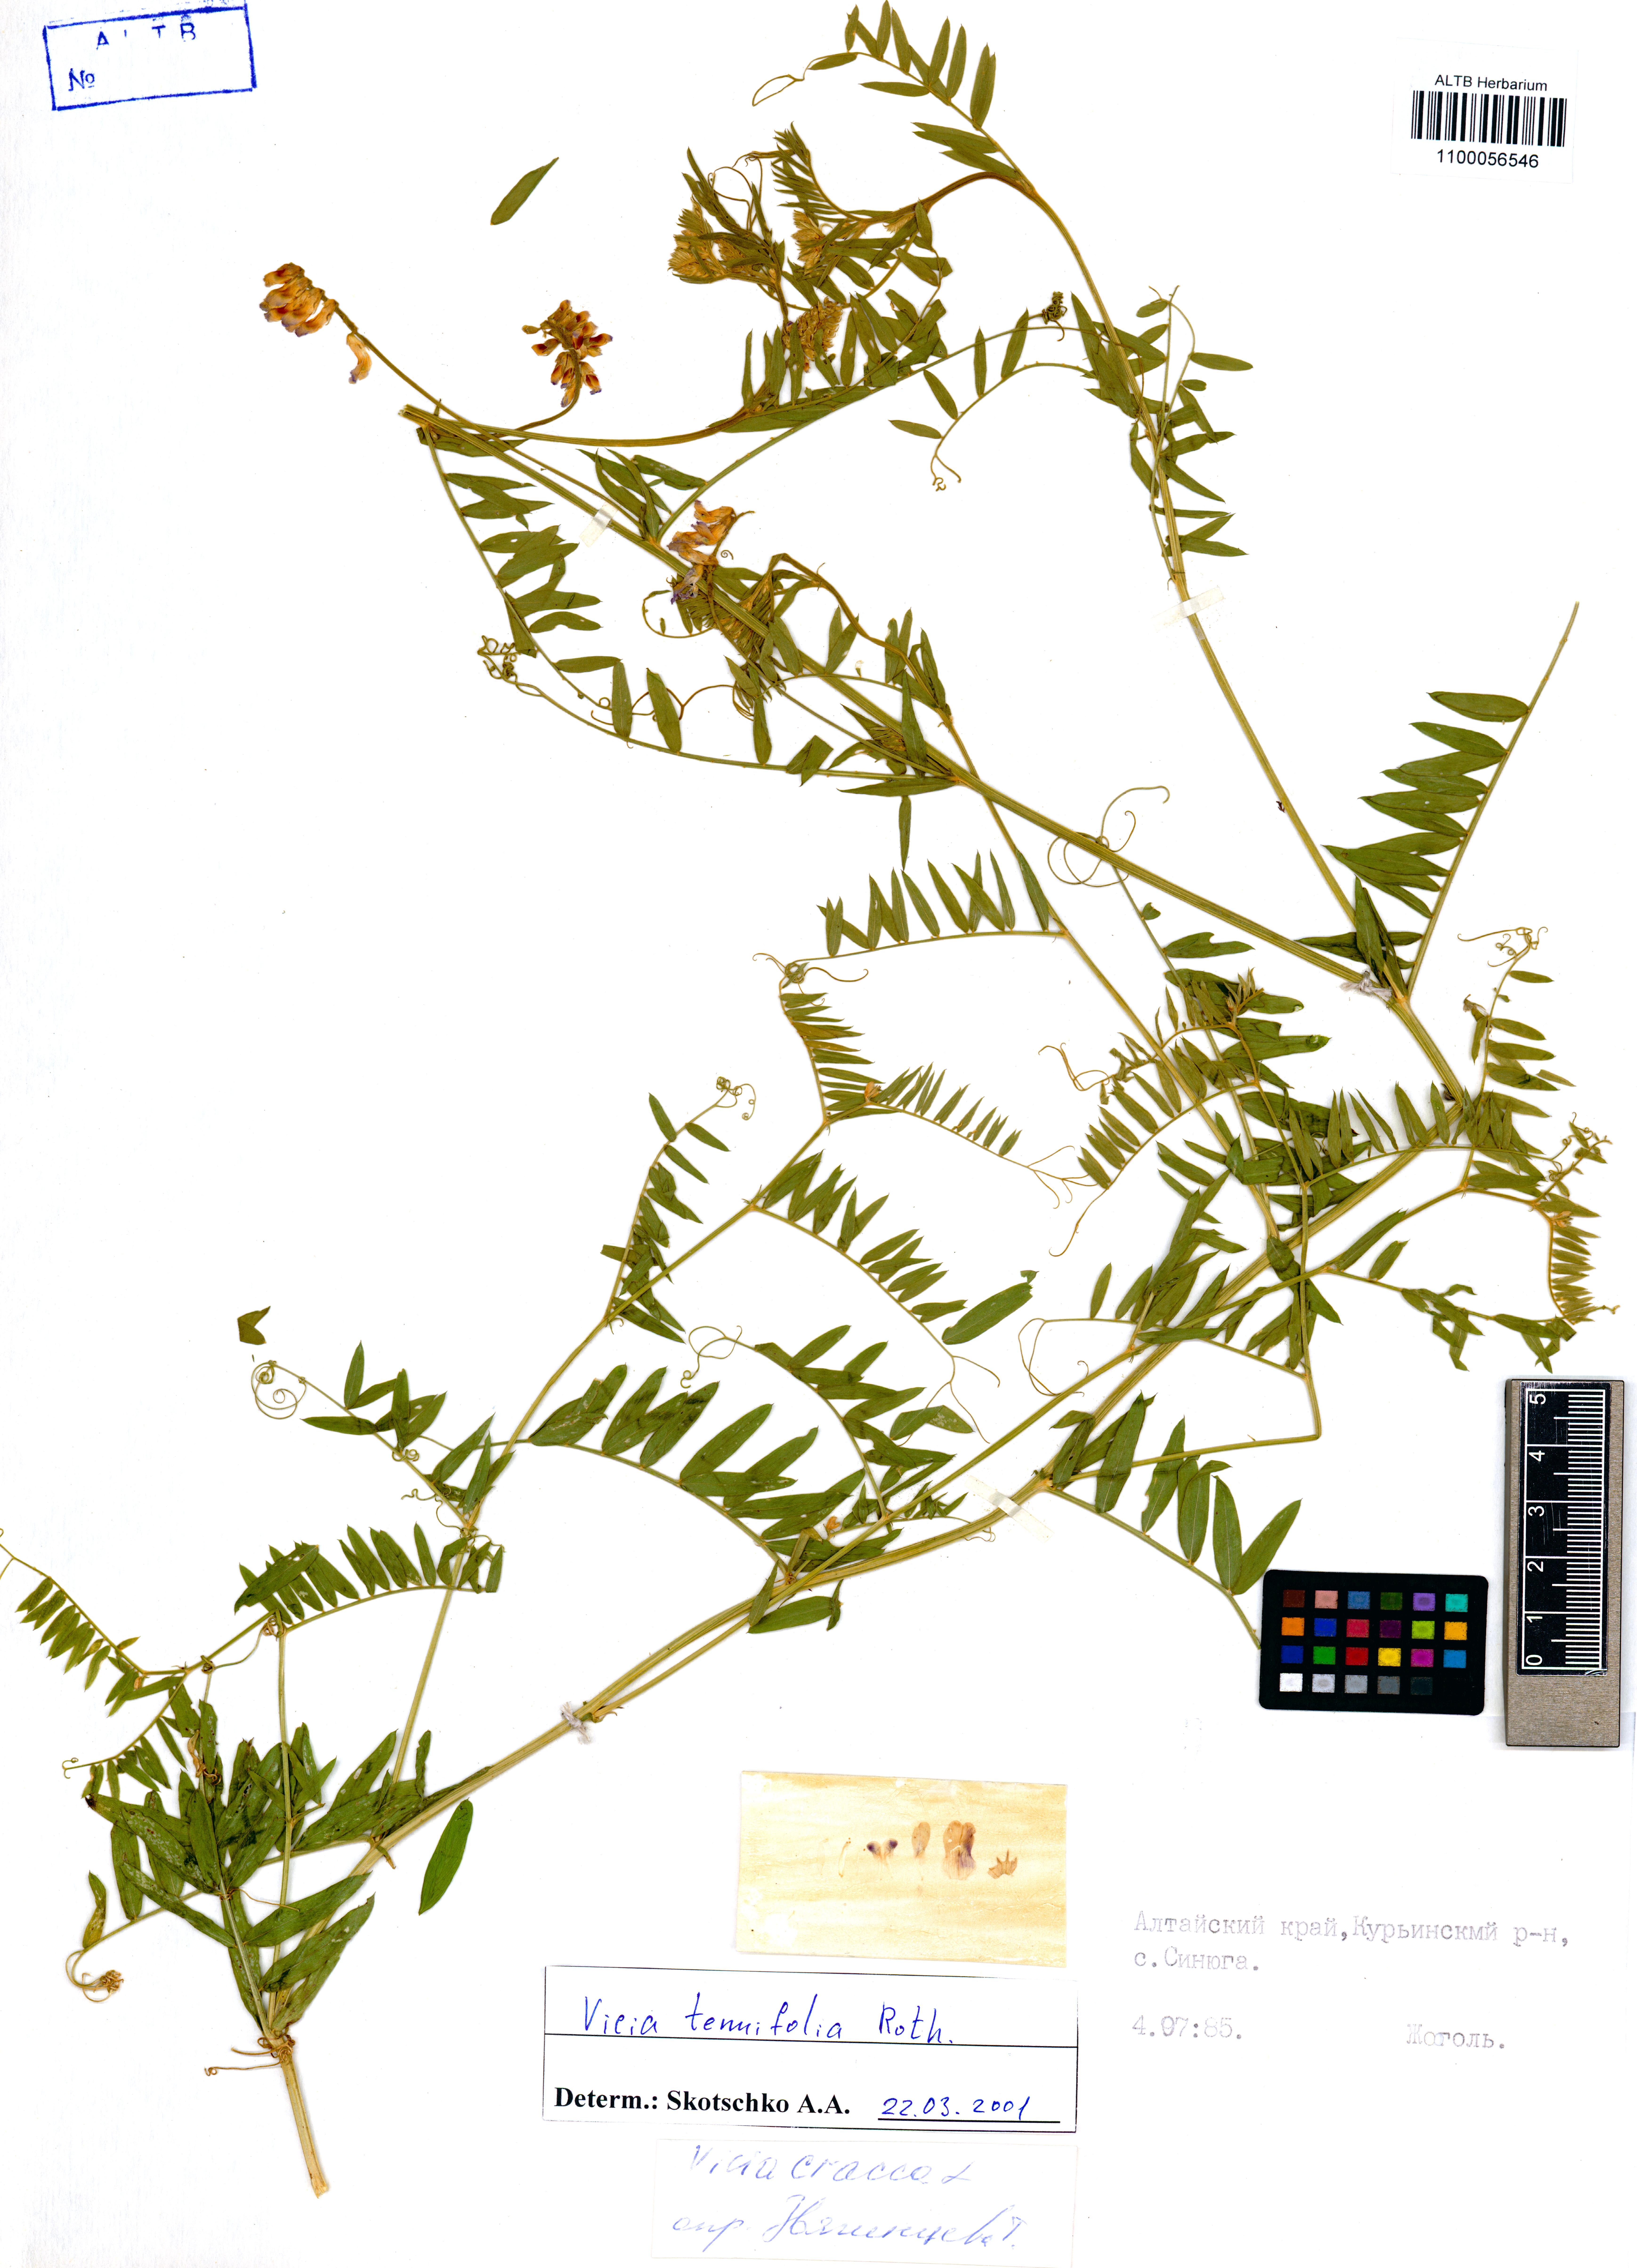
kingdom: Plantae
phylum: Tracheophyta
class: Magnoliopsida
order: Fabales
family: Fabaceae
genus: Vicia
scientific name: Vicia tenuifolia
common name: Fine-leaved vetch
